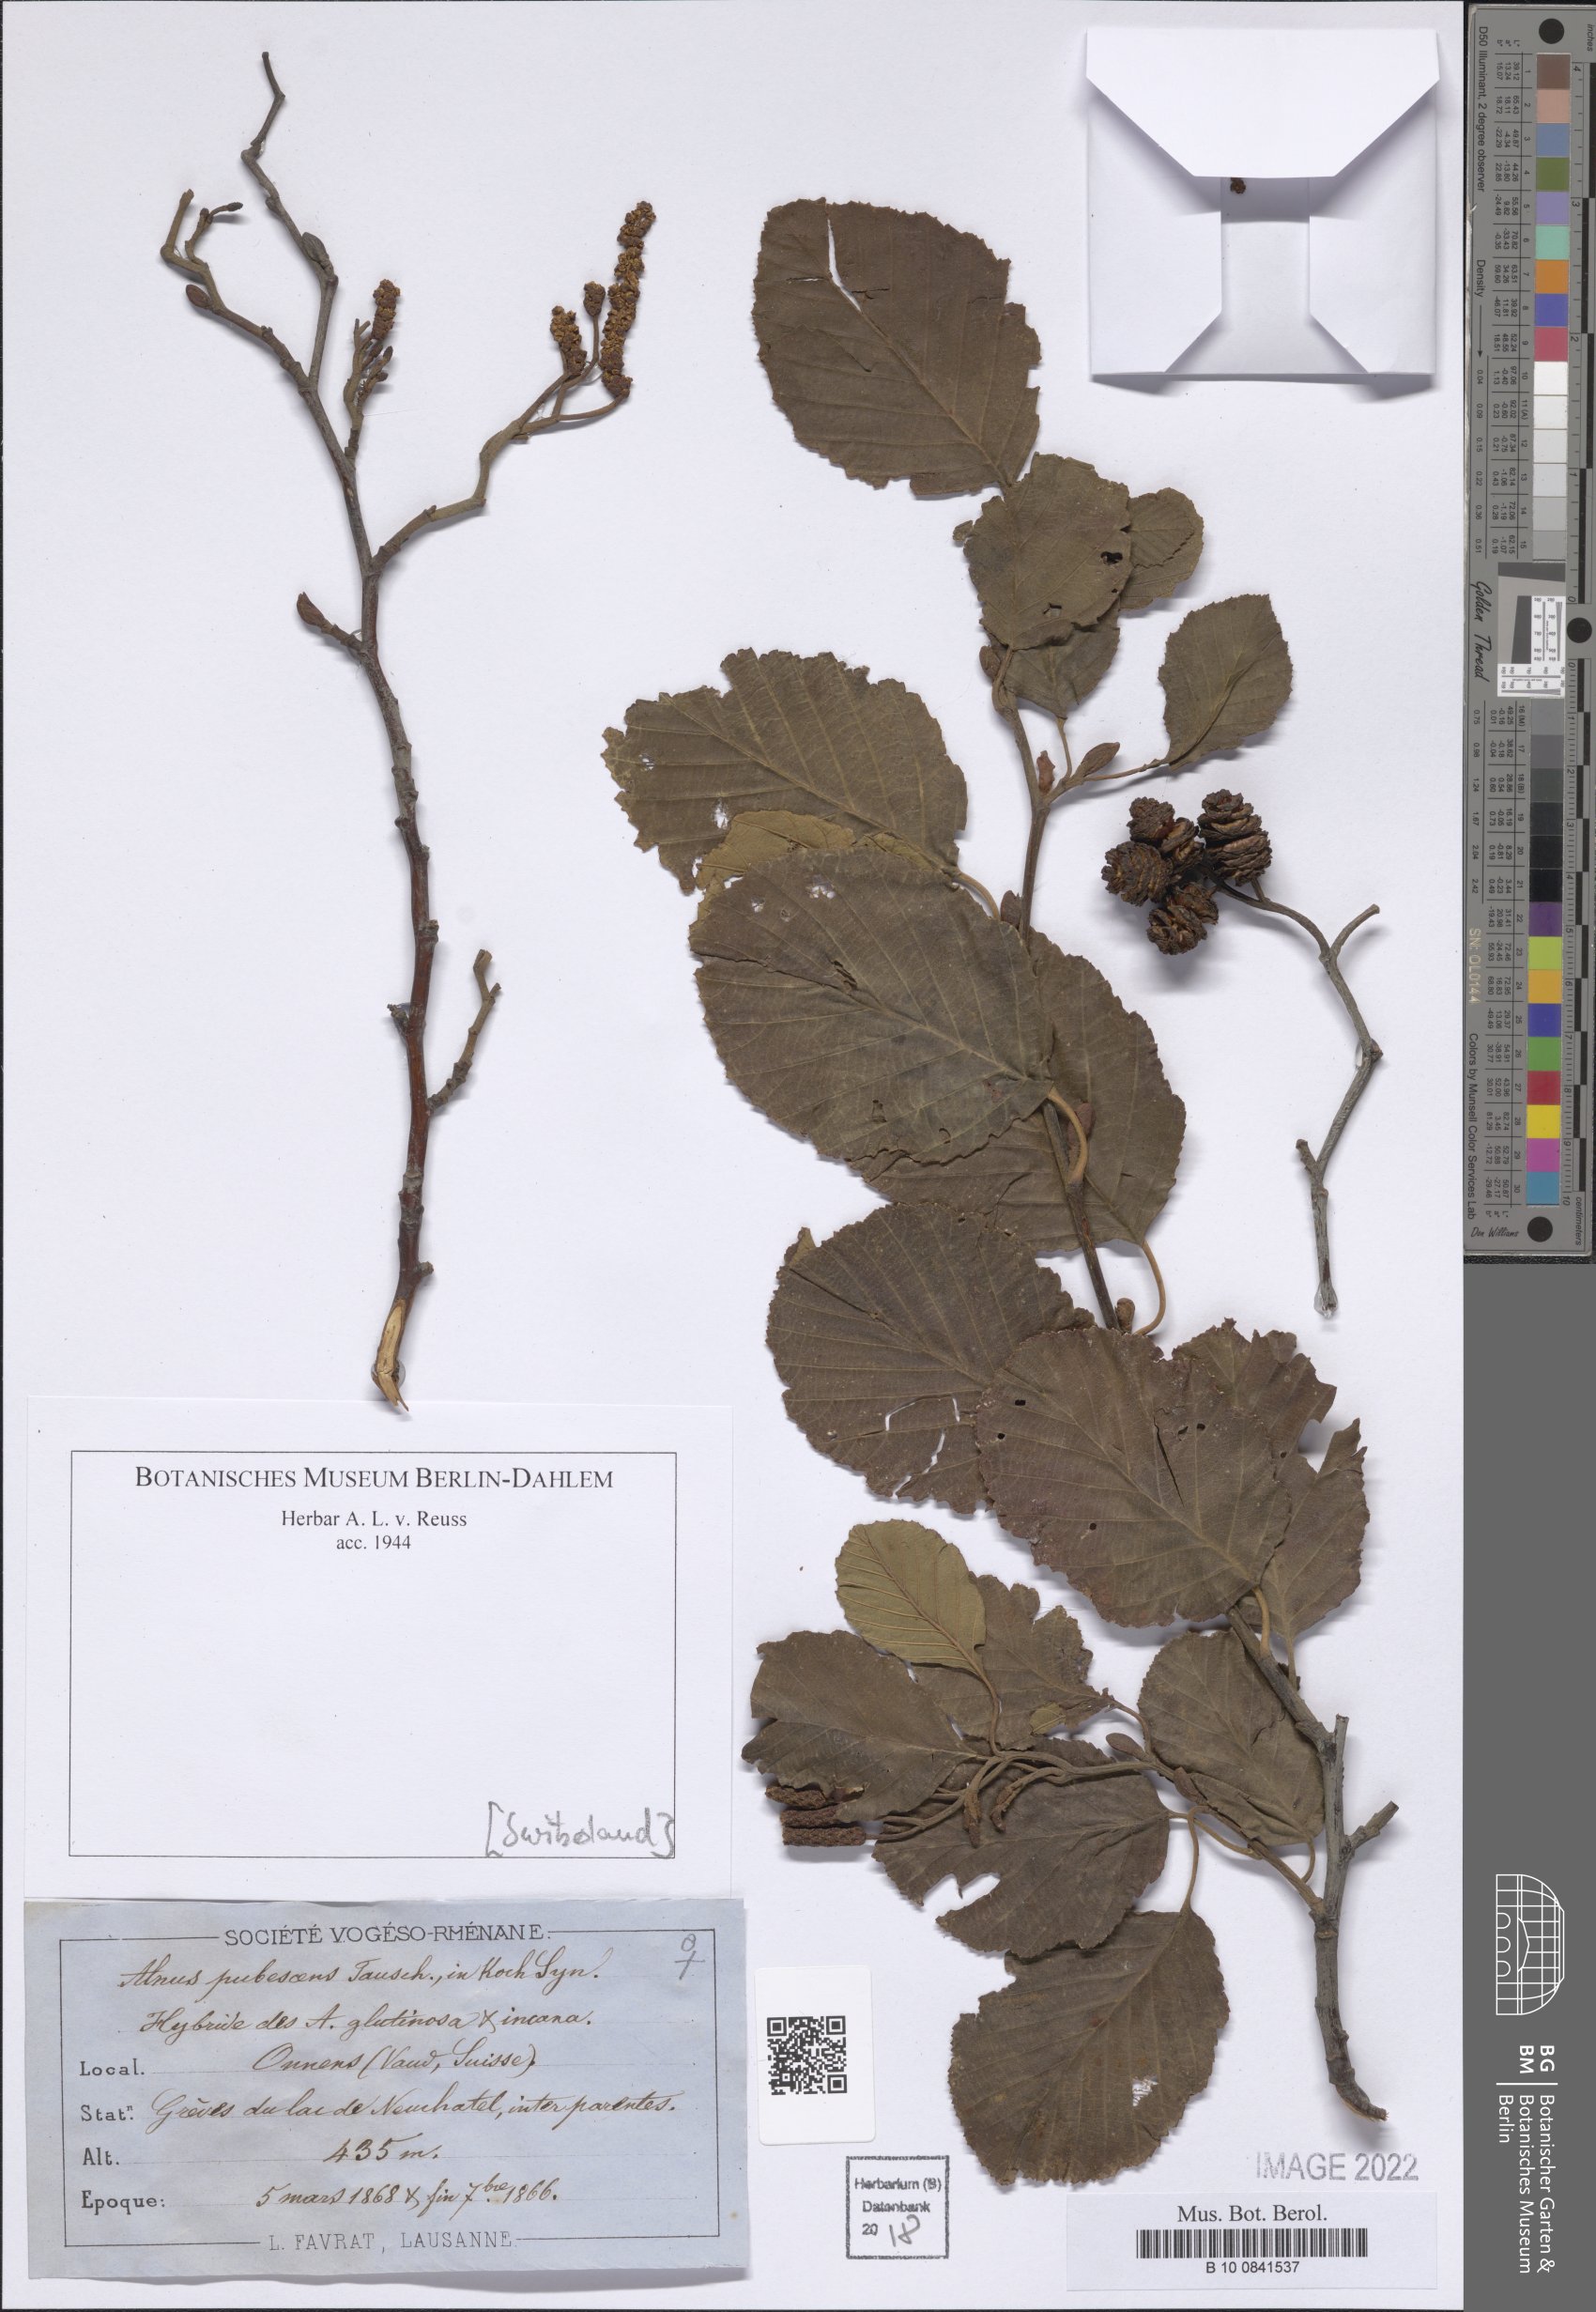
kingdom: Plantae
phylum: Tracheophyta
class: Magnoliopsida
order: Fagales
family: Betulaceae
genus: Alnus
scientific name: Alnus incana
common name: Grey alder
